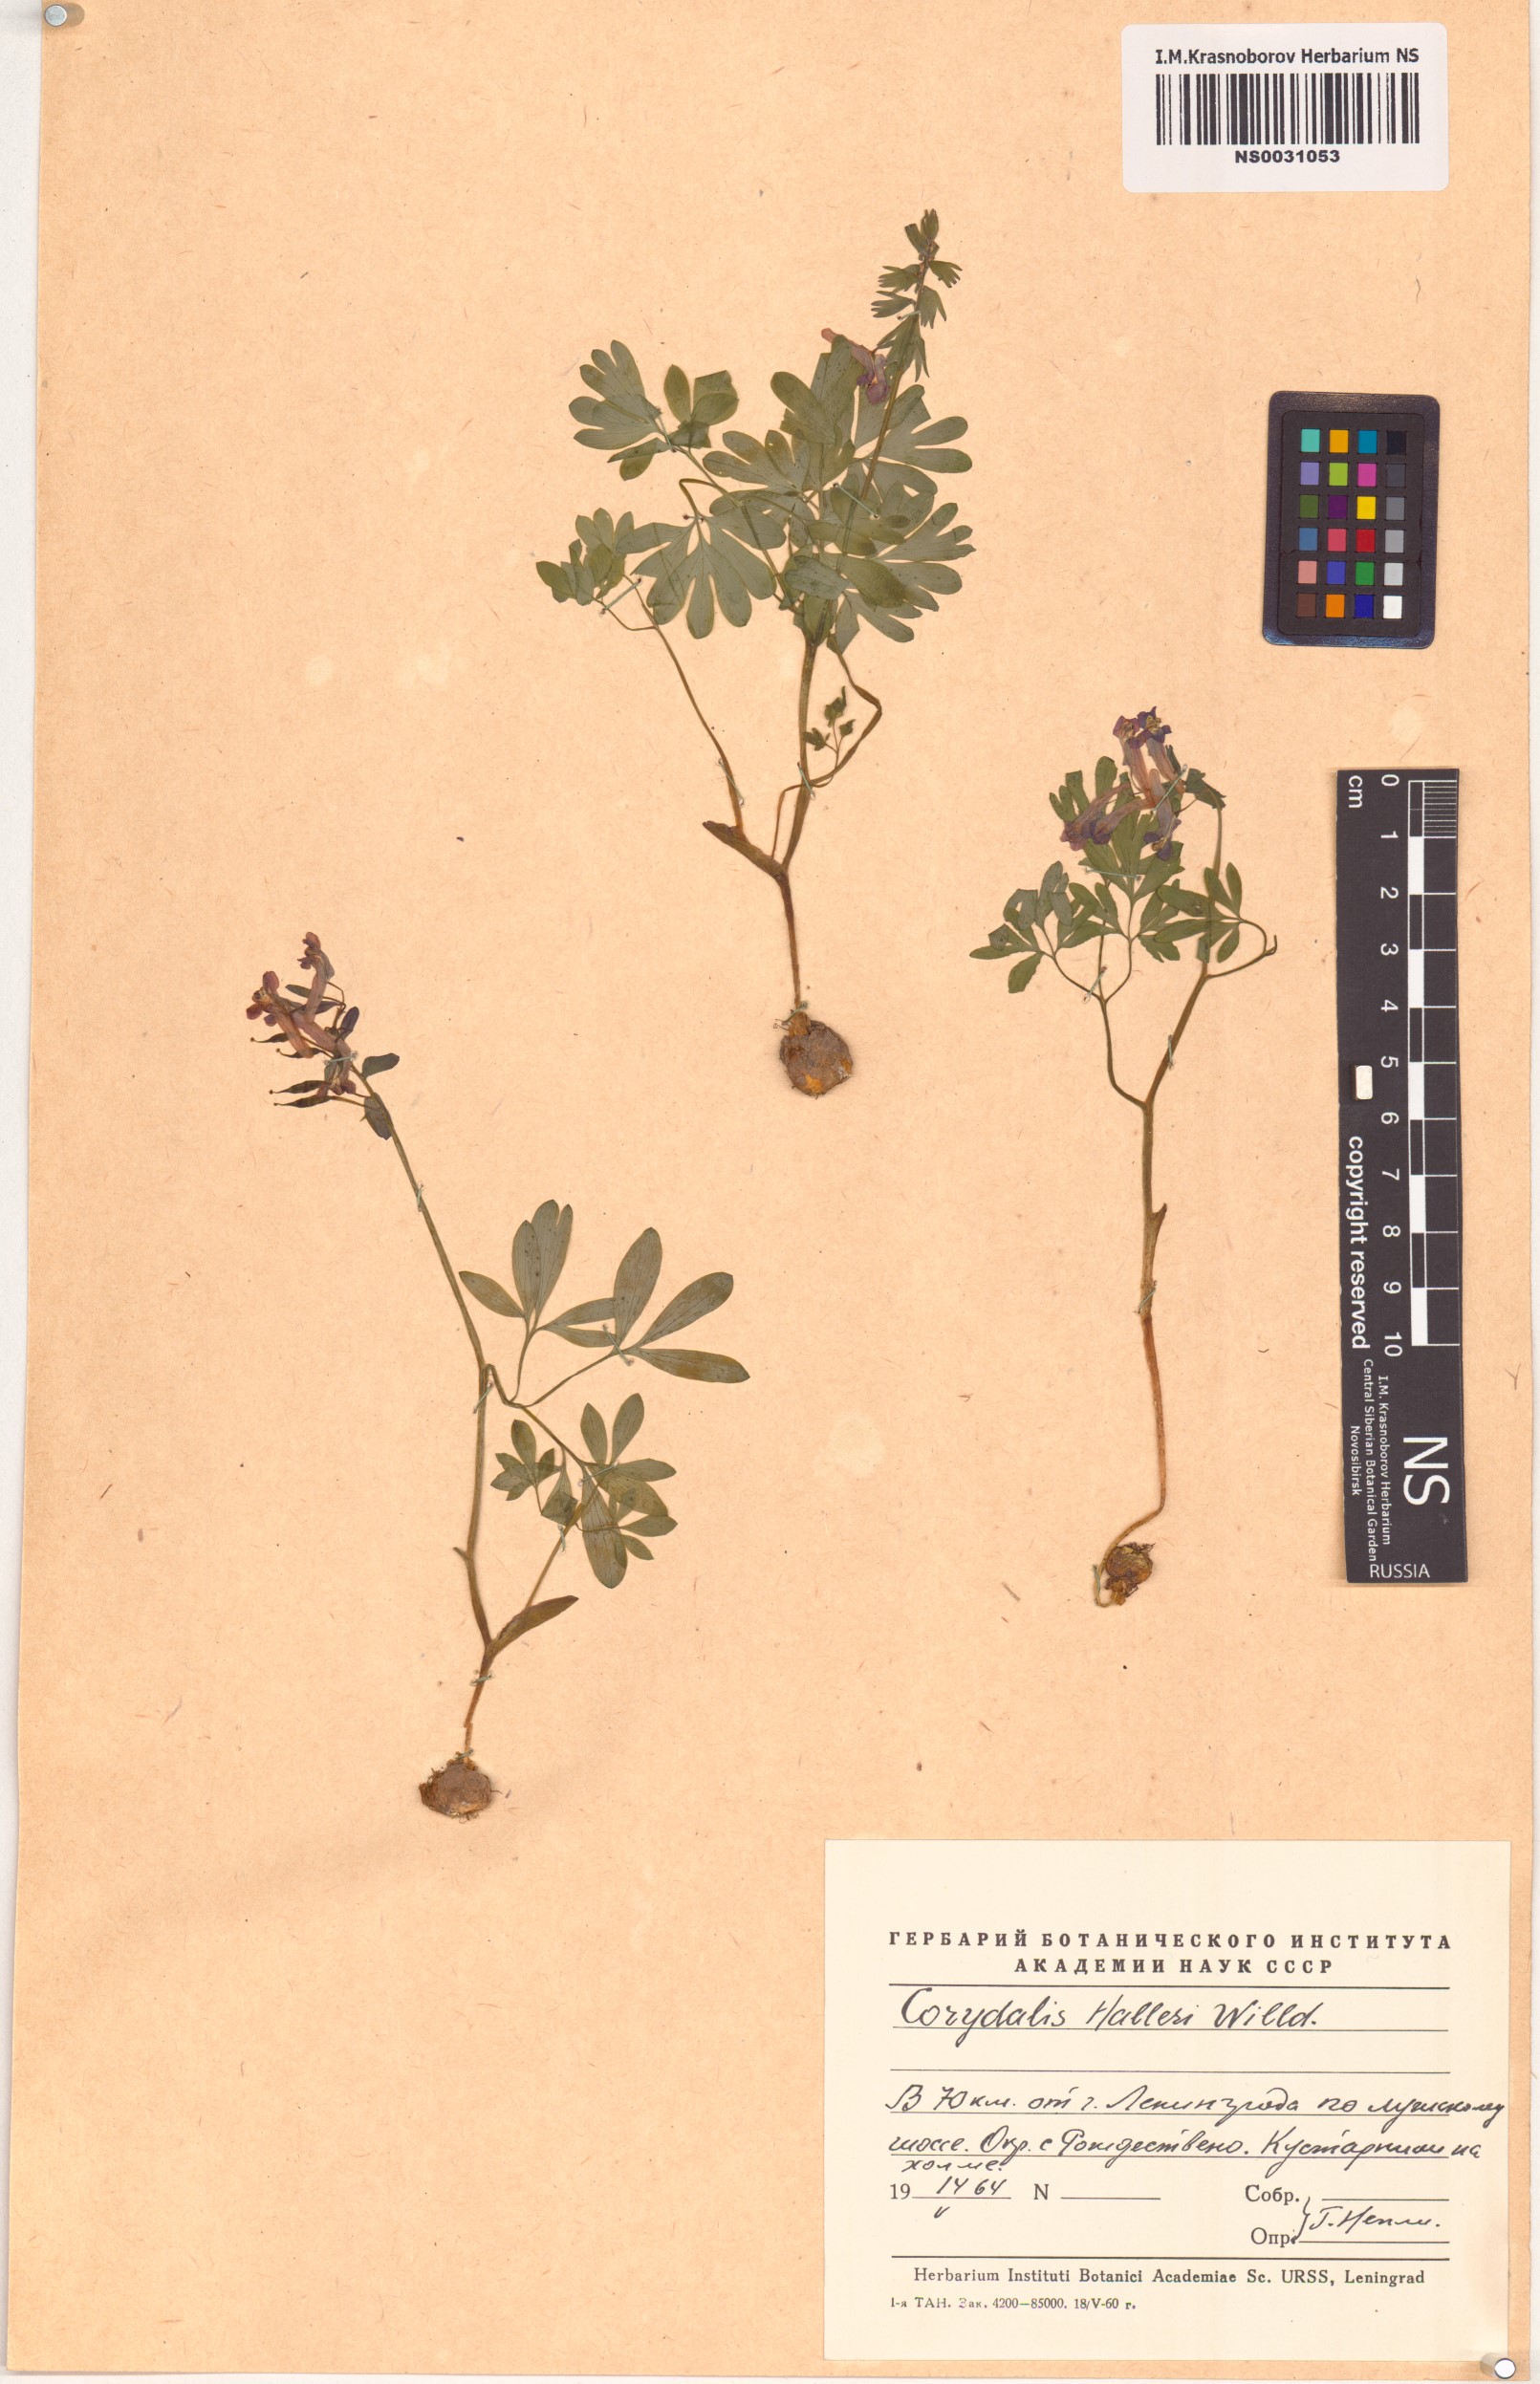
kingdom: Plantae
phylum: Tracheophyta
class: Magnoliopsida
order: Ranunculales
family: Papaveraceae
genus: Corydalis
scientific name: Corydalis solida
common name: Bird-in-a-bush
